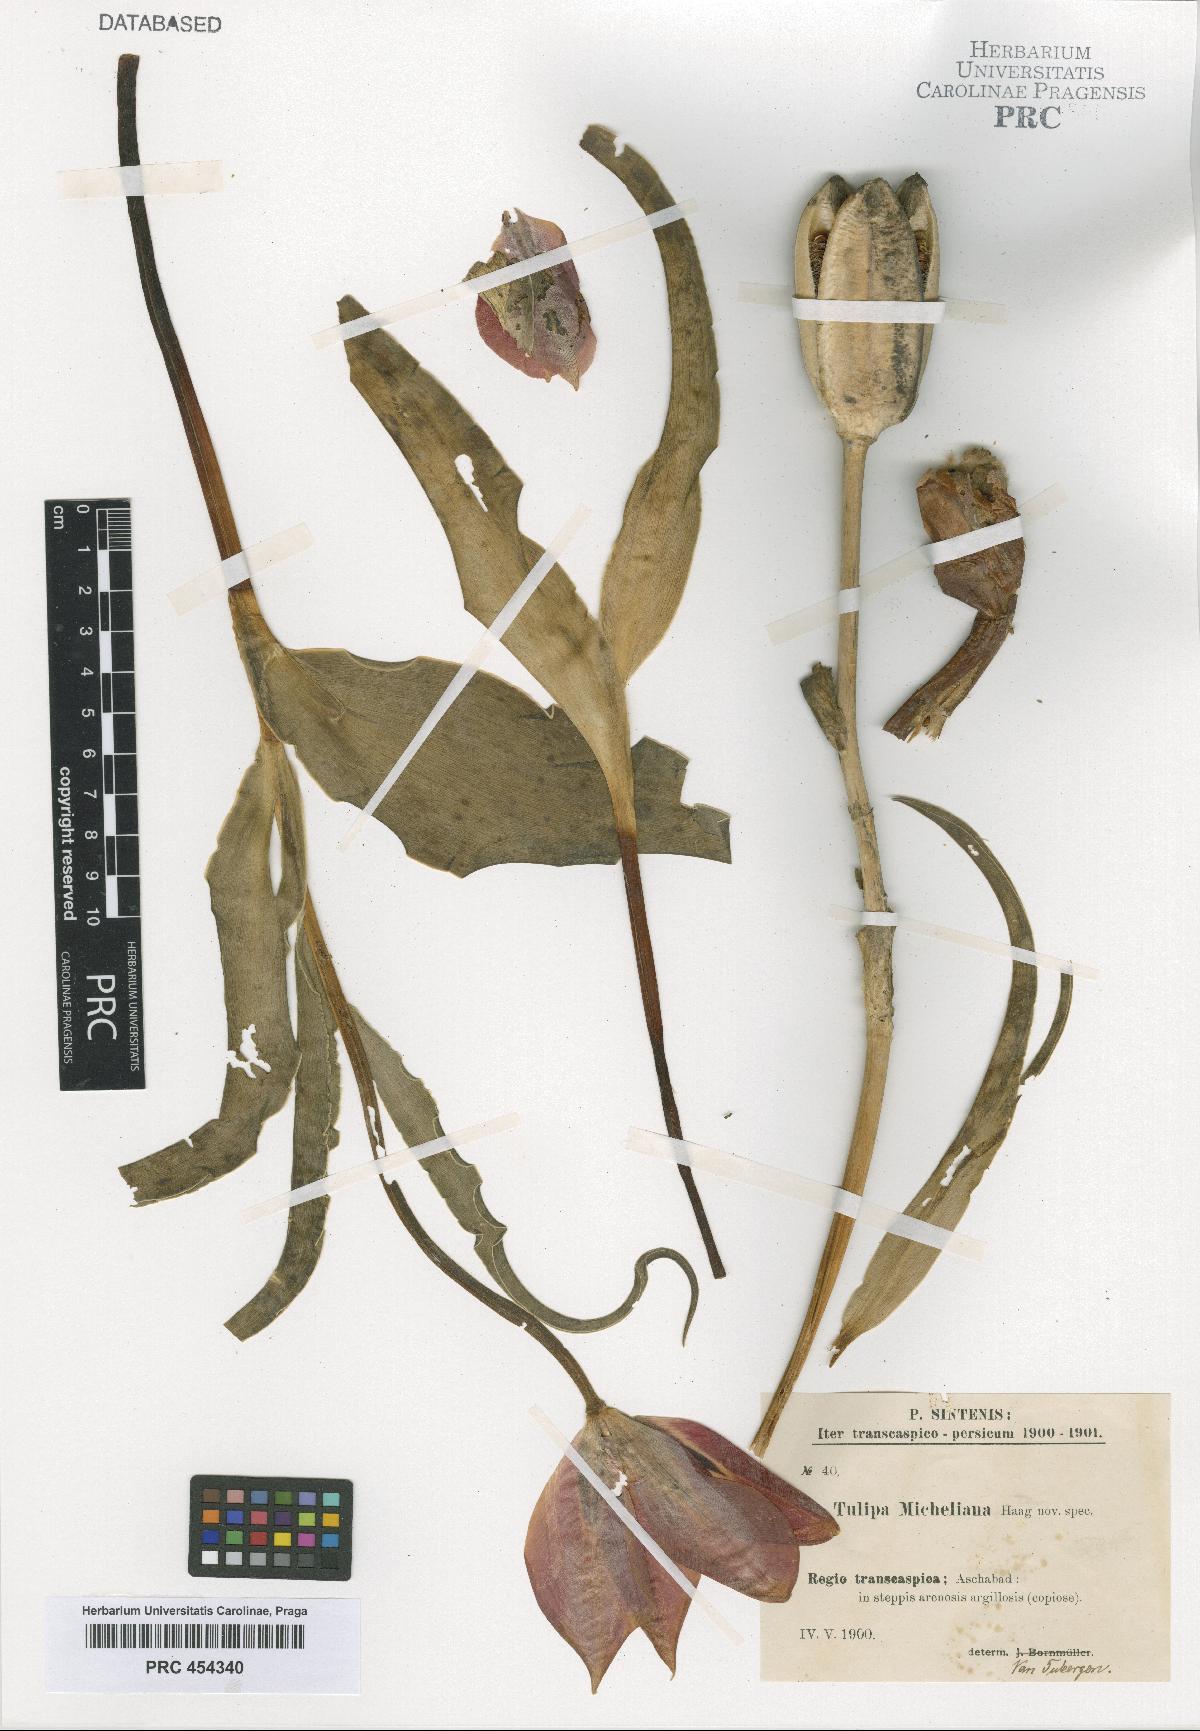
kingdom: Plantae
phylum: Tracheophyta
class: Liliopsida
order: Liliales
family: Liliaceae
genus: Tulipa
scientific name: Tulipa undulatifolia
